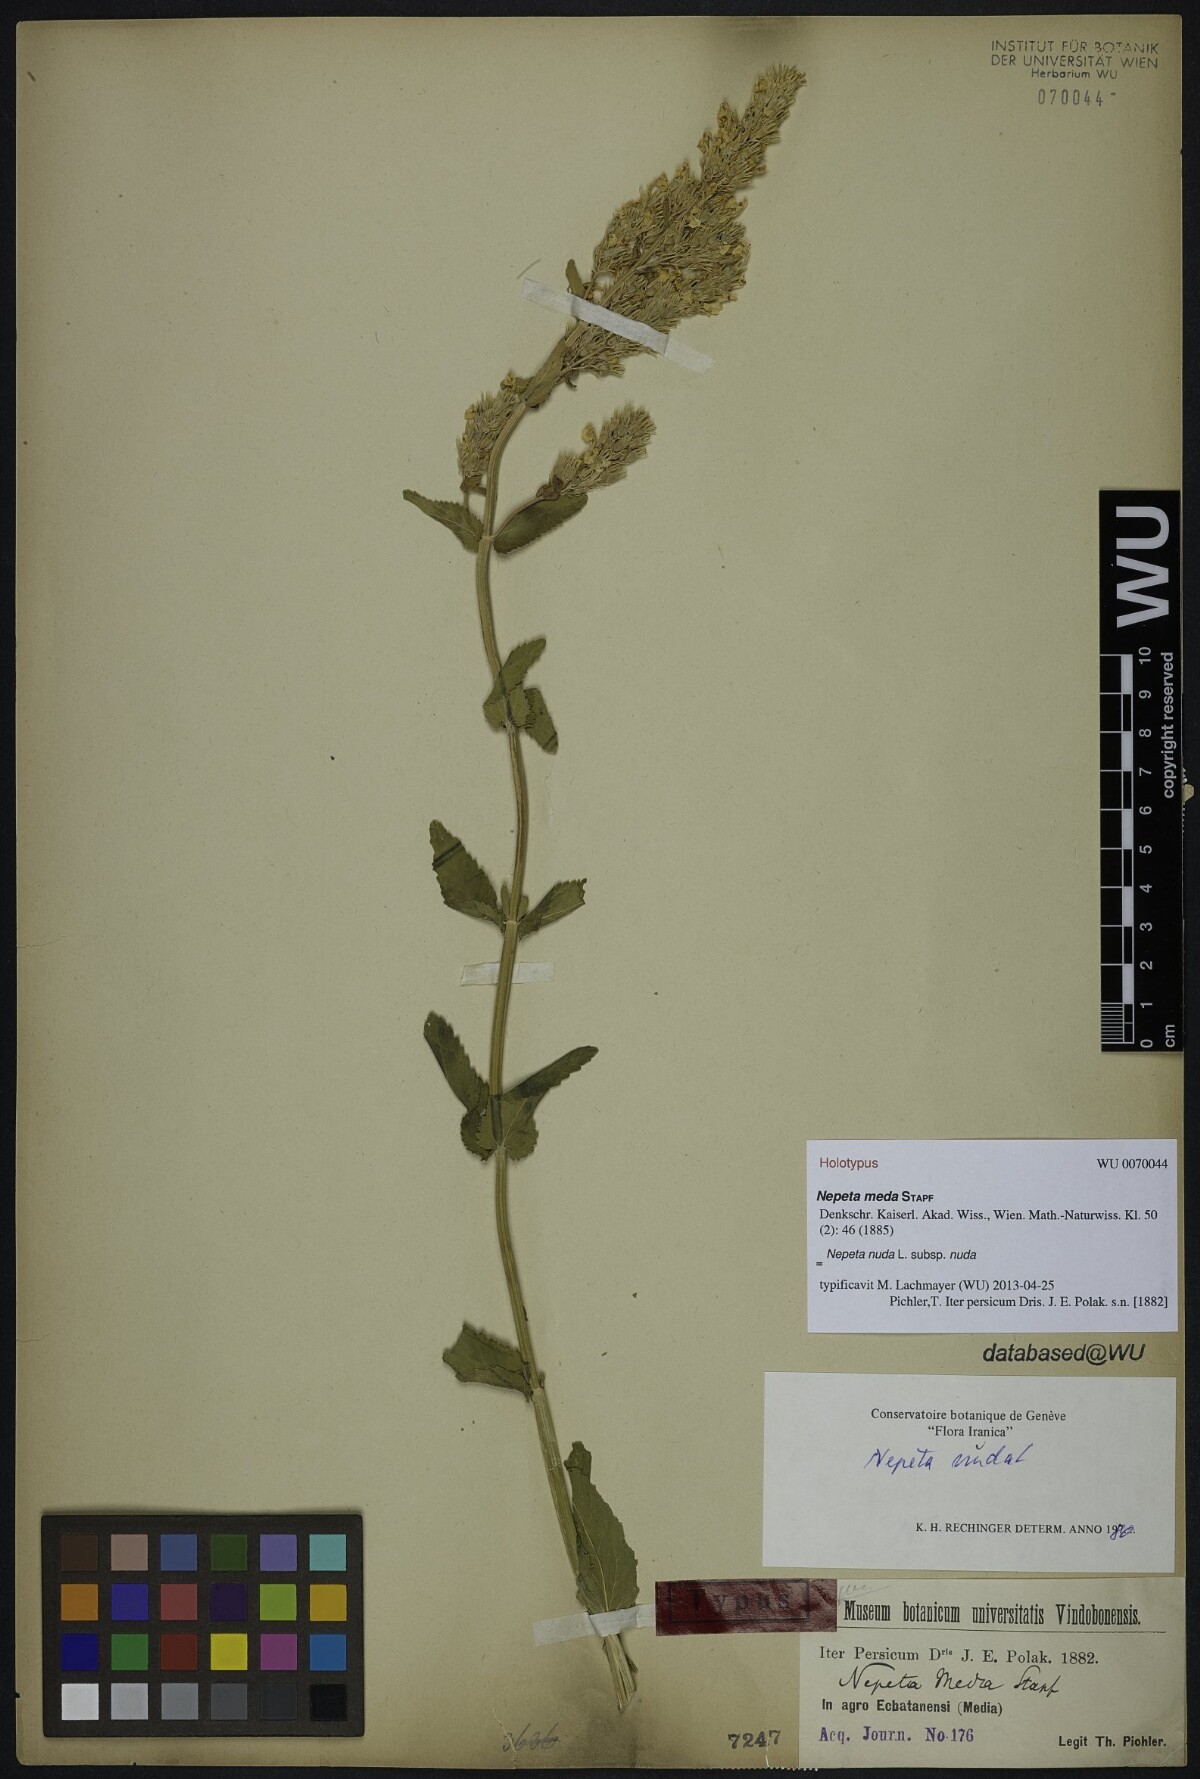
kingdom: Plantae
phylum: Tracheophyta
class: Magnoliopsida
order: Lamiales
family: Lamiaceae
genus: Nepeta
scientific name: Nepeta nuda
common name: Hairless catmint
